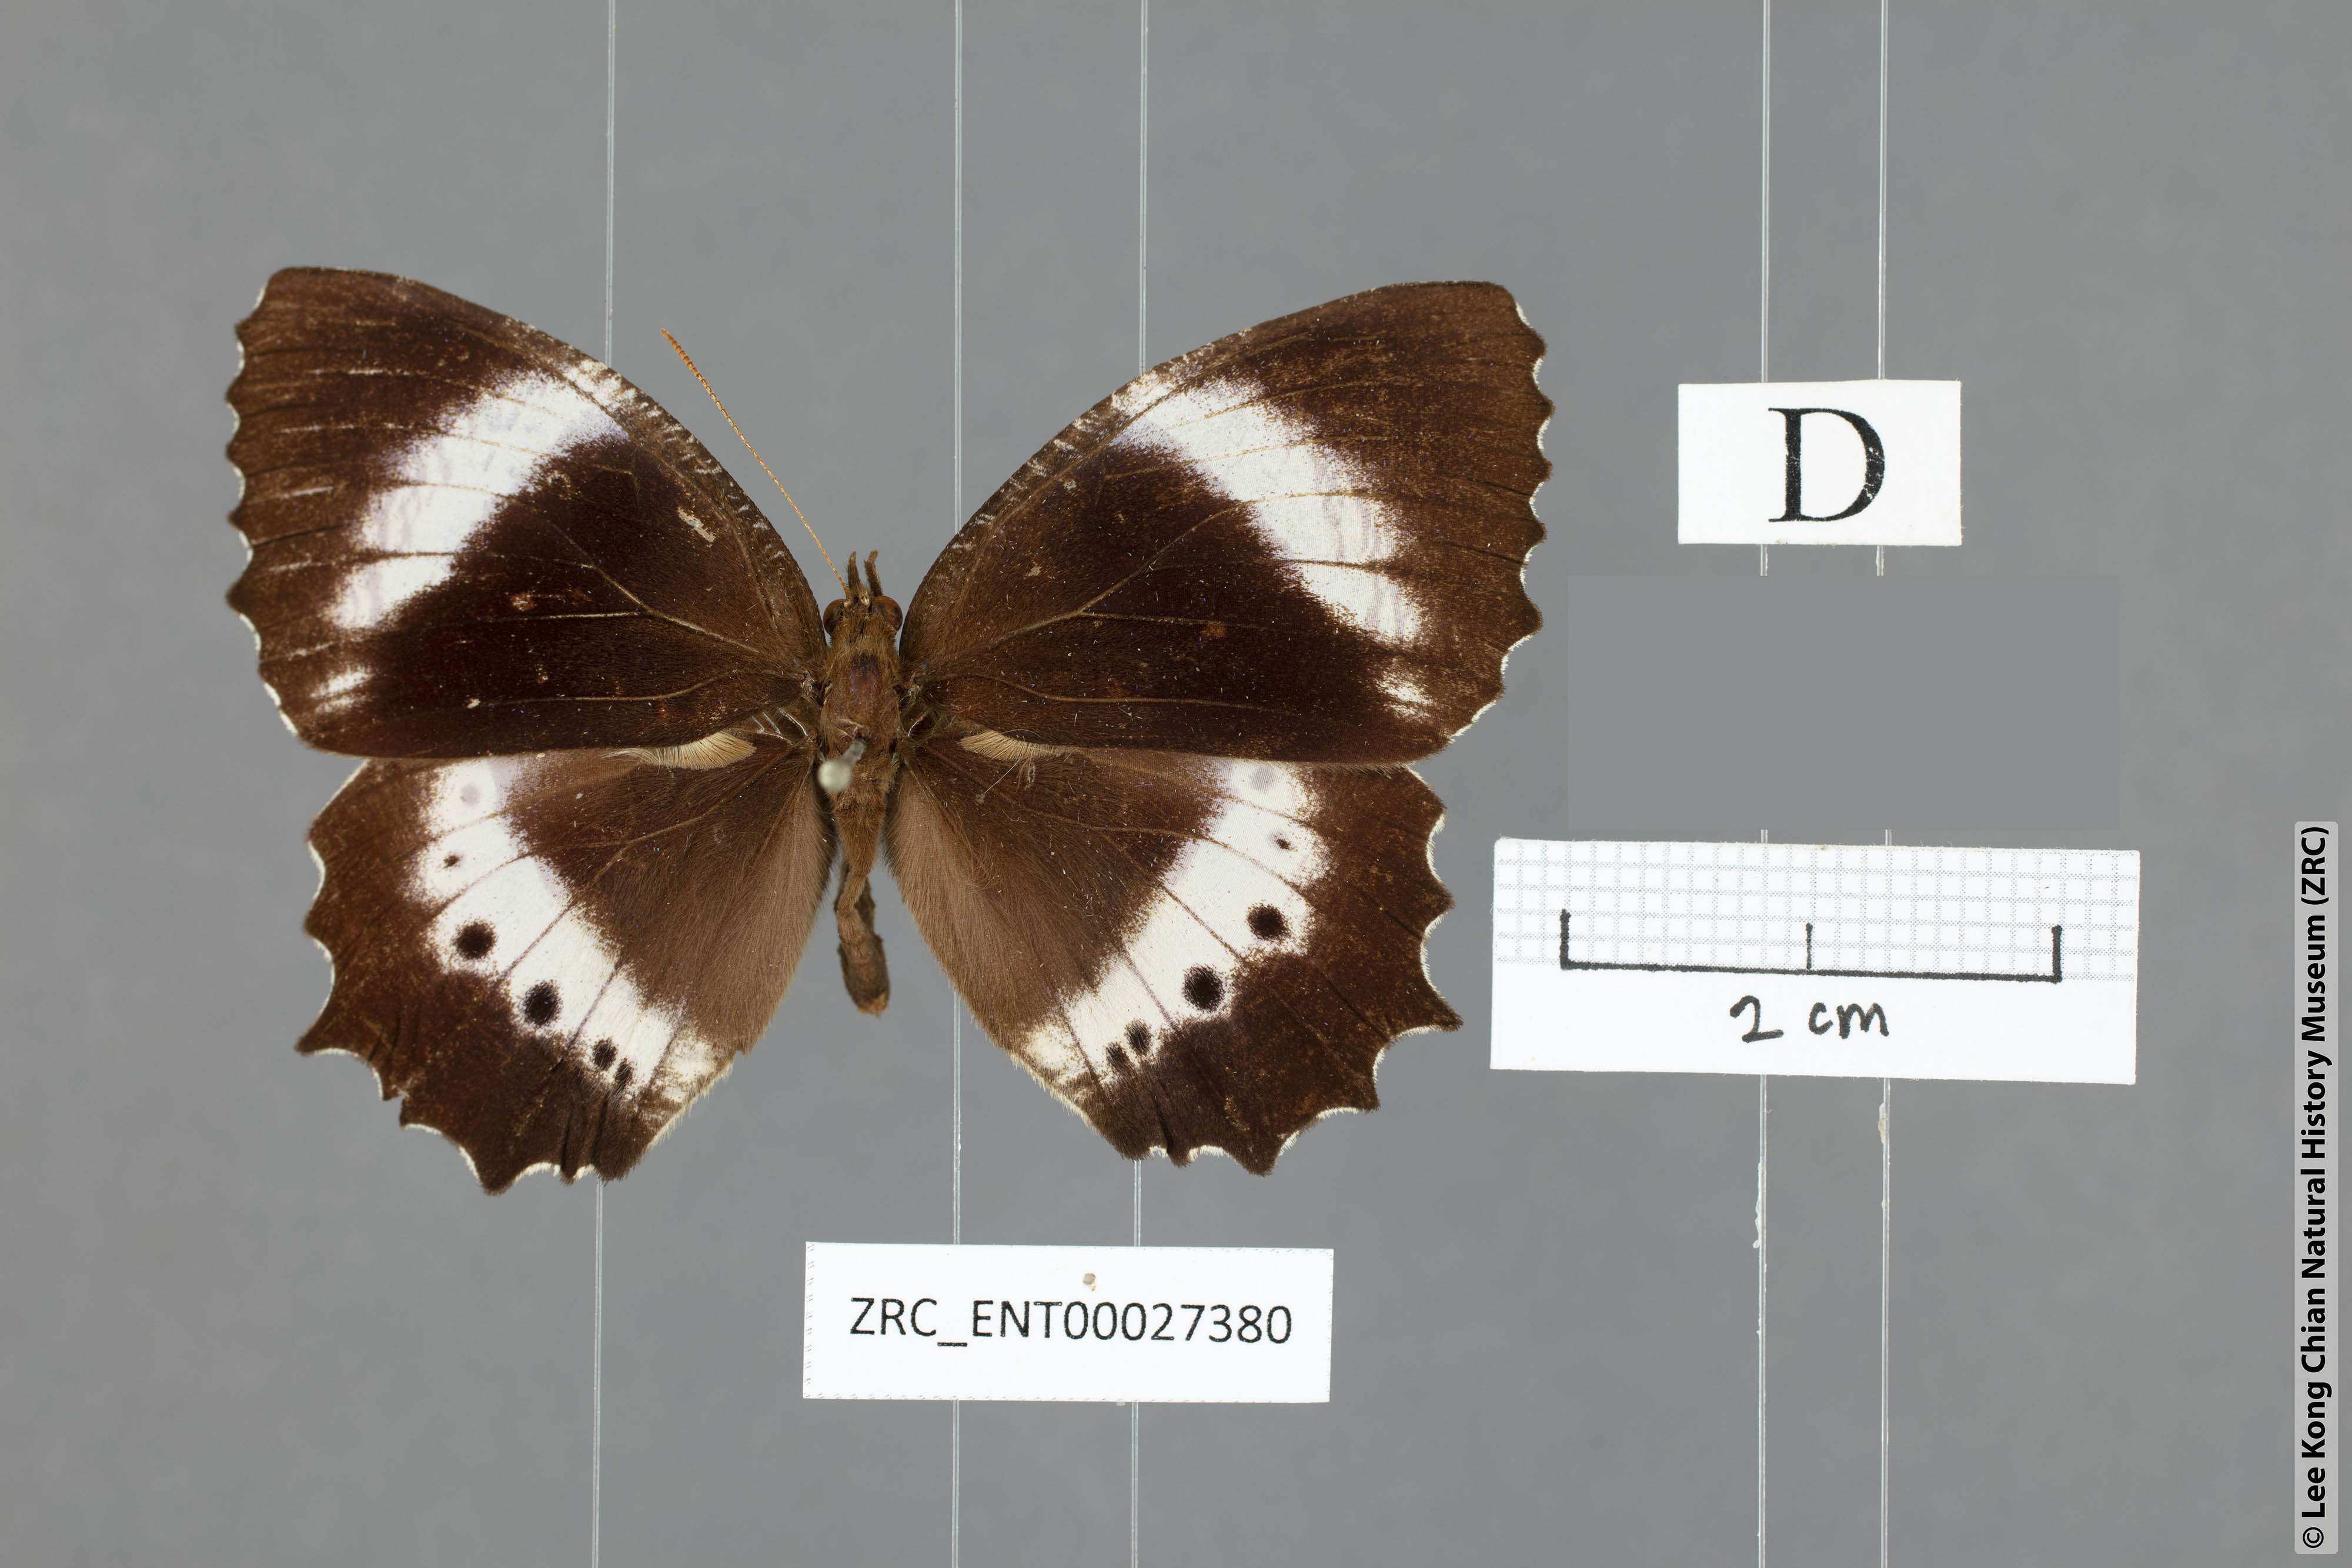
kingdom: Animalia
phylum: Arthropoda
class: Insecta
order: Lepidoptera
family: Nymphalidae
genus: Elymnias
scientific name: Elymnias dara
